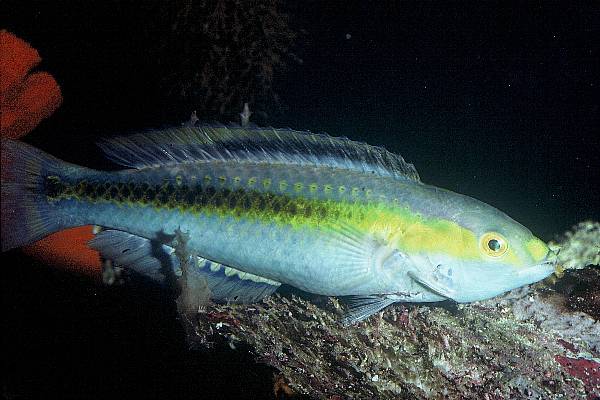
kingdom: Animalia
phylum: Chordata
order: Perciformes
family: Labridae
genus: Halichoeres
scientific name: Halichoeres pelicieri
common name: Peliciers wrasse
